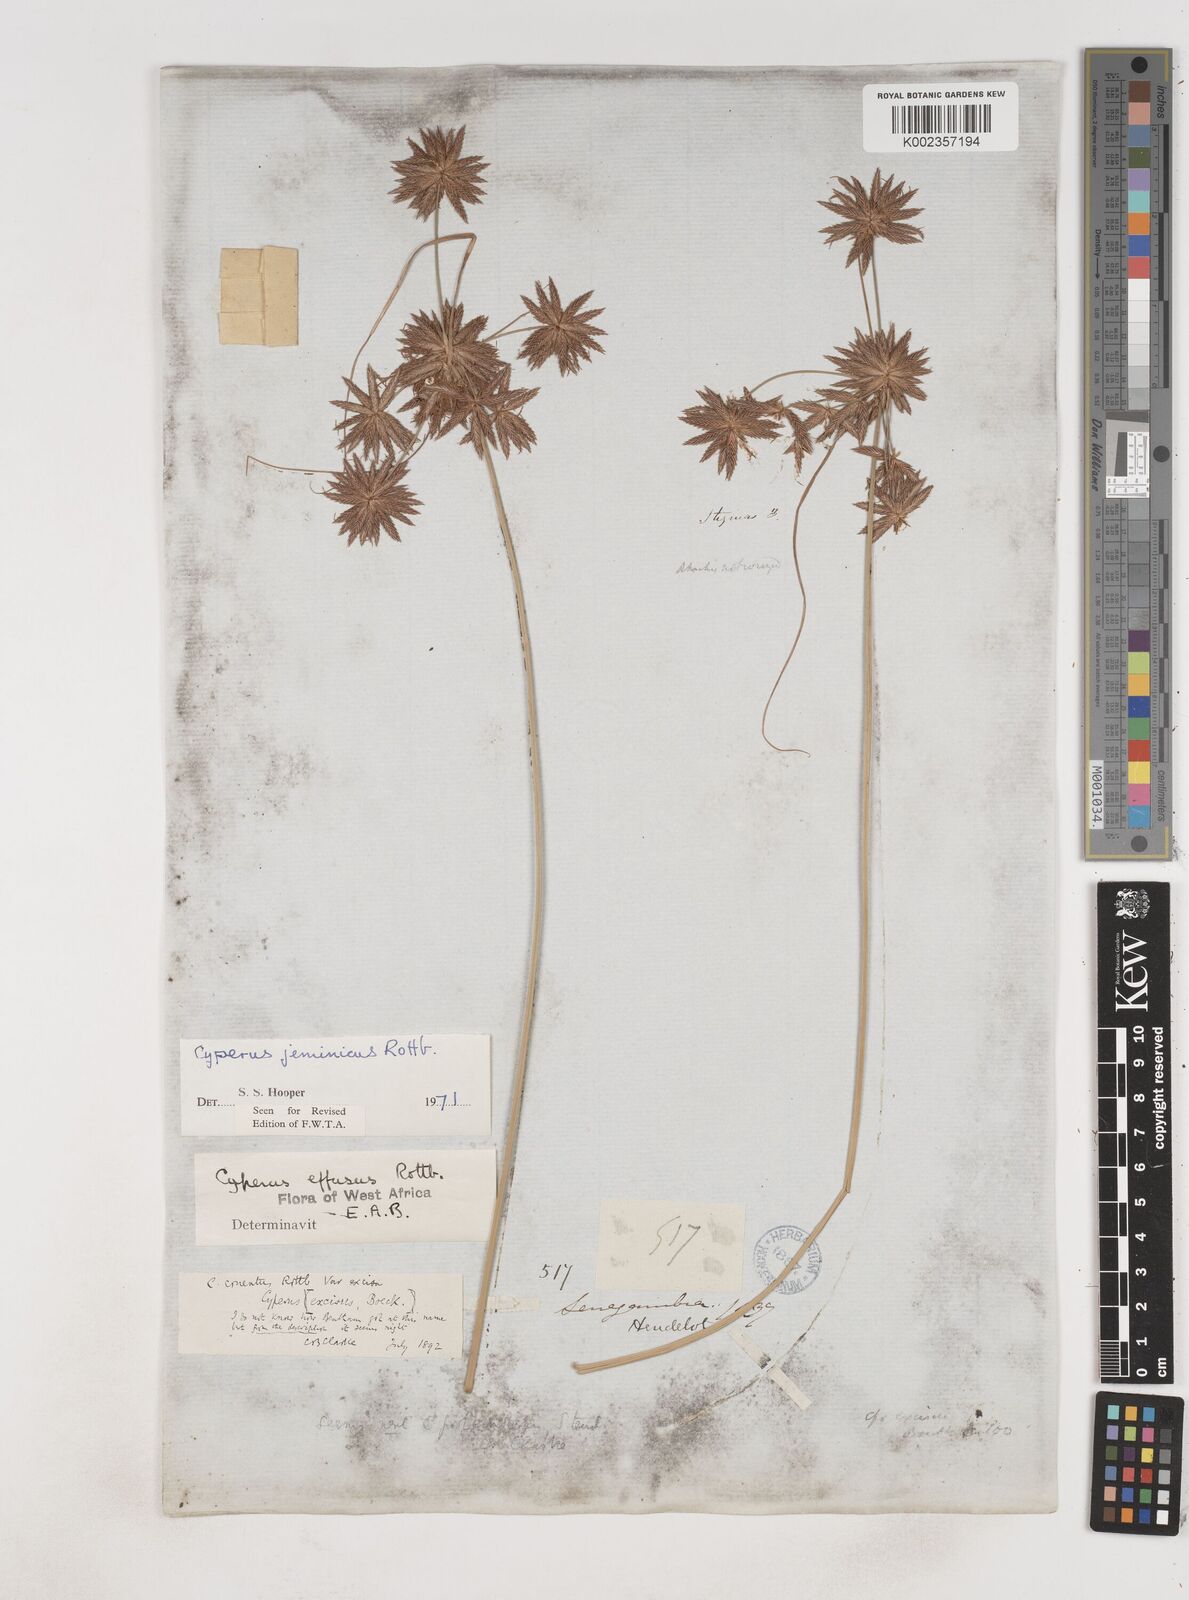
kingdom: Plantae
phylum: Tracheophyta
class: Liliopsida
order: Poales
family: Cyperaceae
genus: Cyperus
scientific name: Cyperus jeminicus
